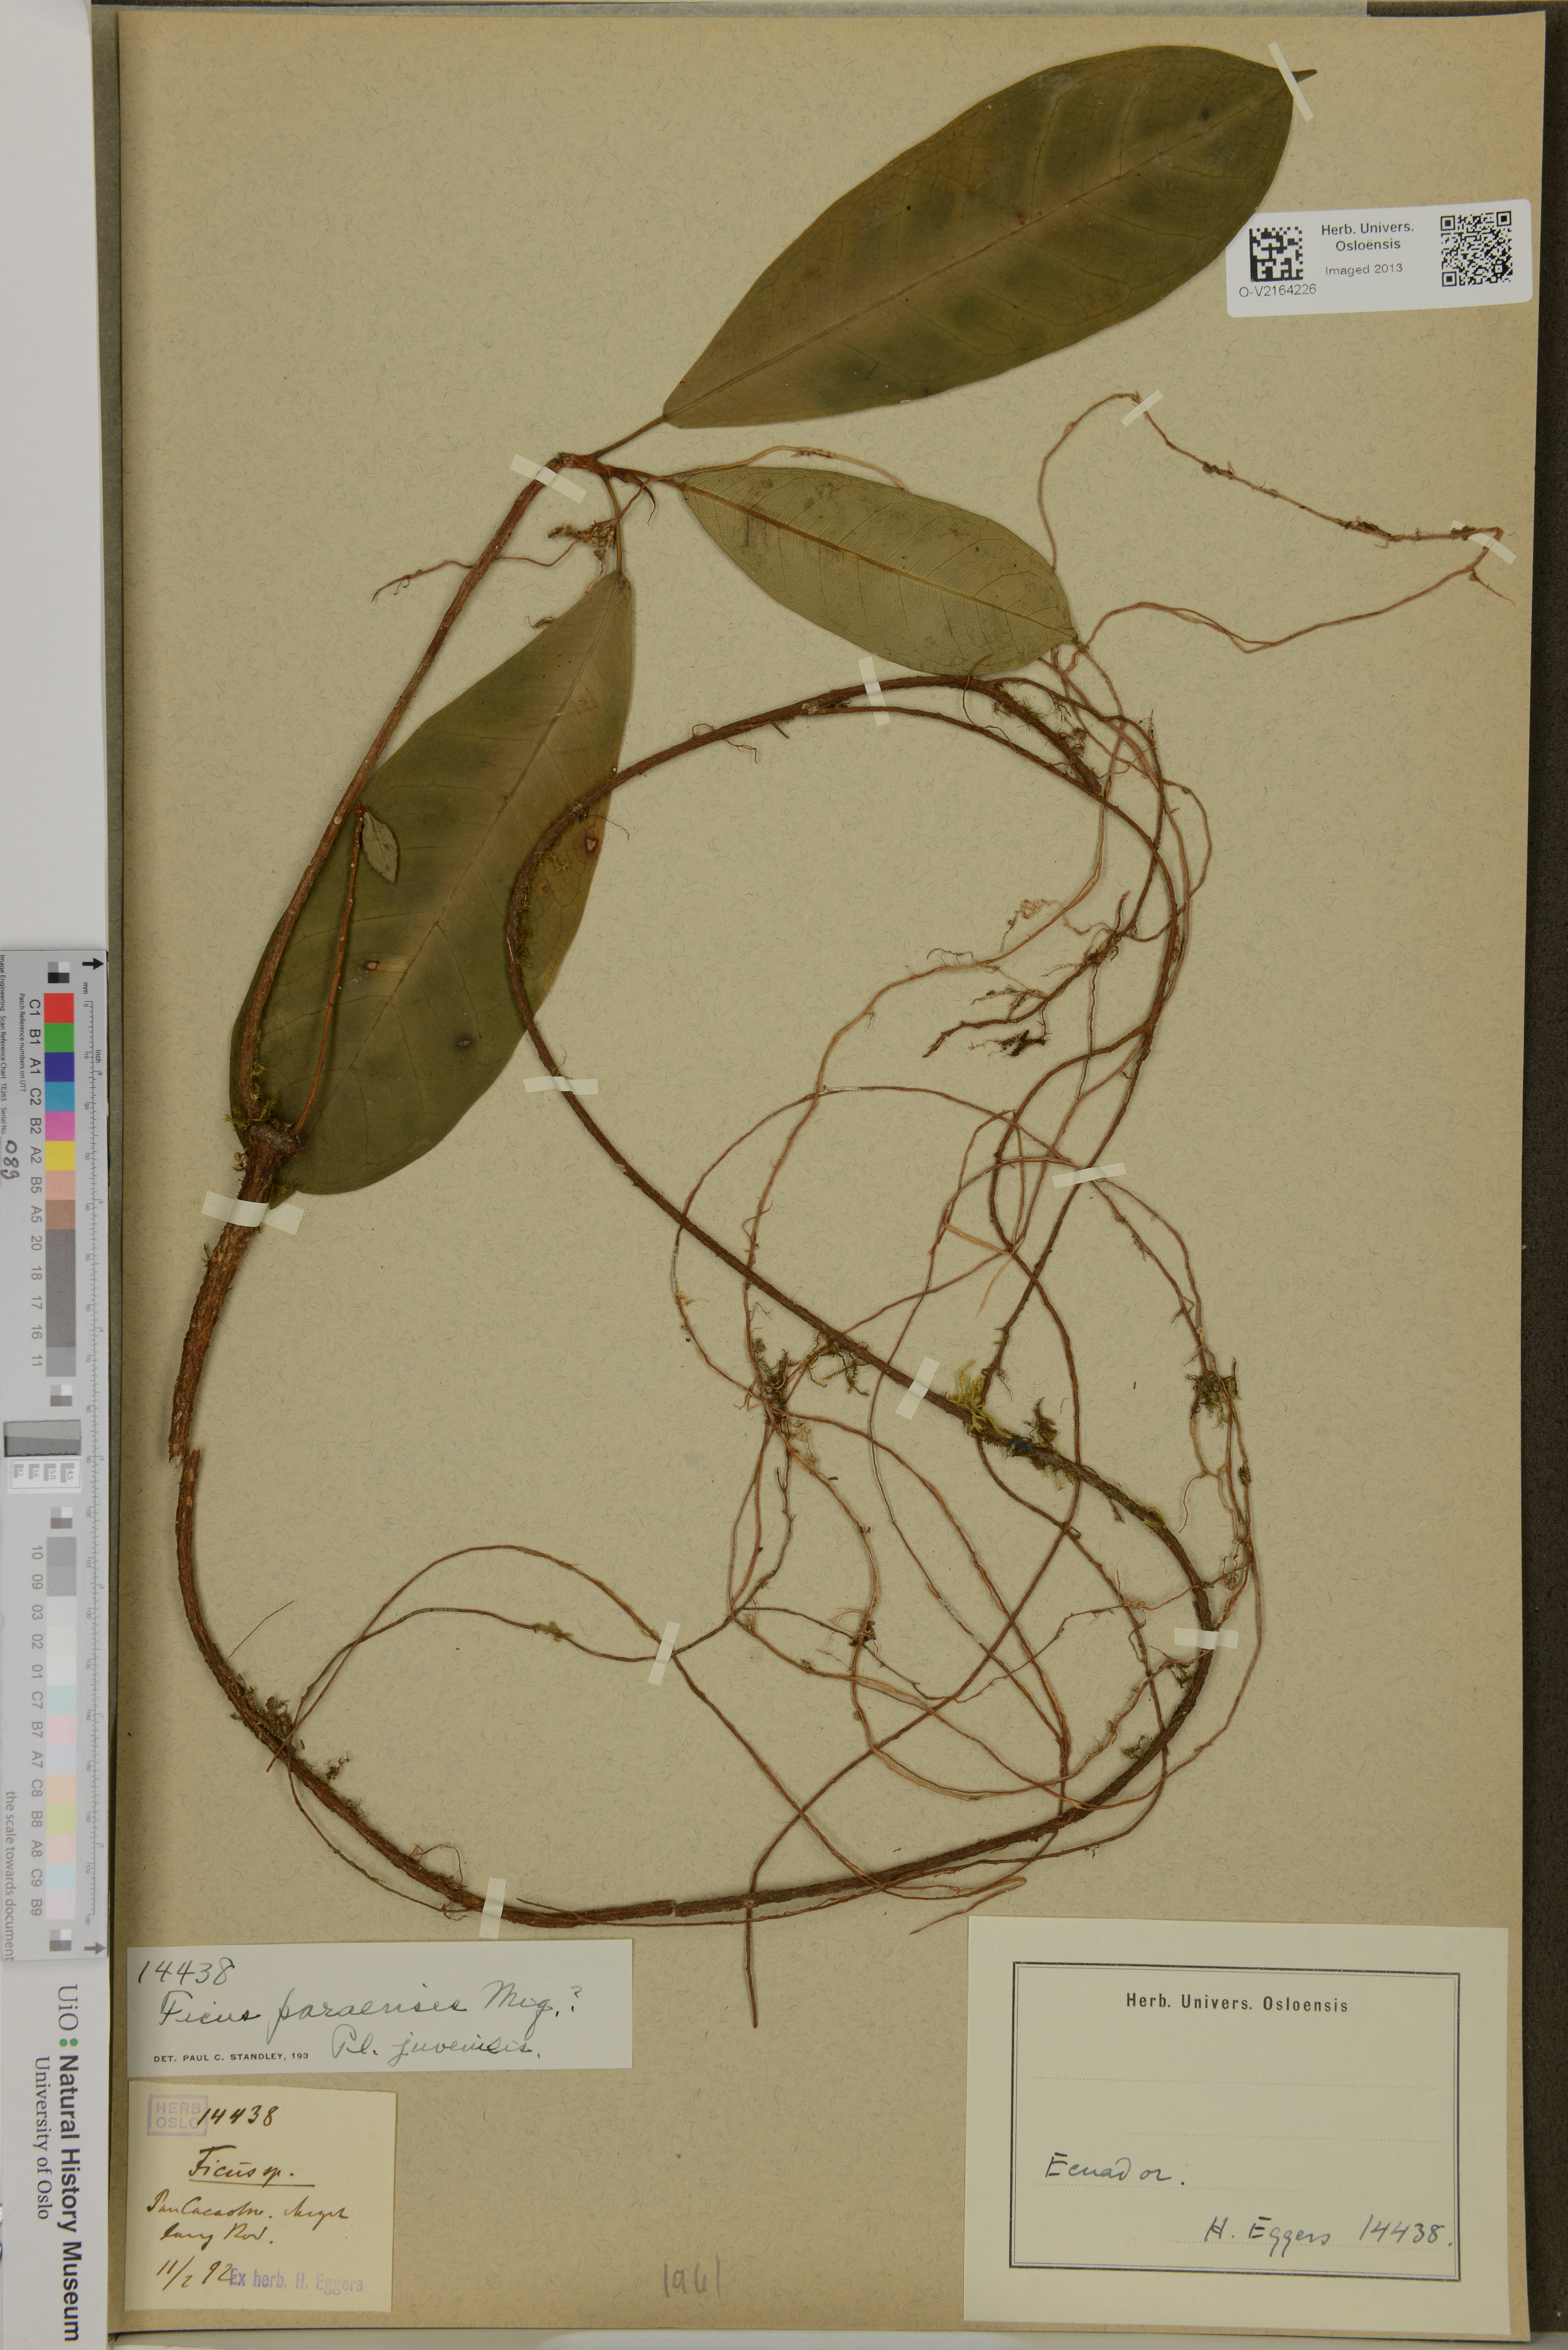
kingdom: Plantae
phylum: Tracheophyta
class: Magnoliopsida
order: Rosales
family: Moraceae
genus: Ficus
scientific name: Ficus paraensis
